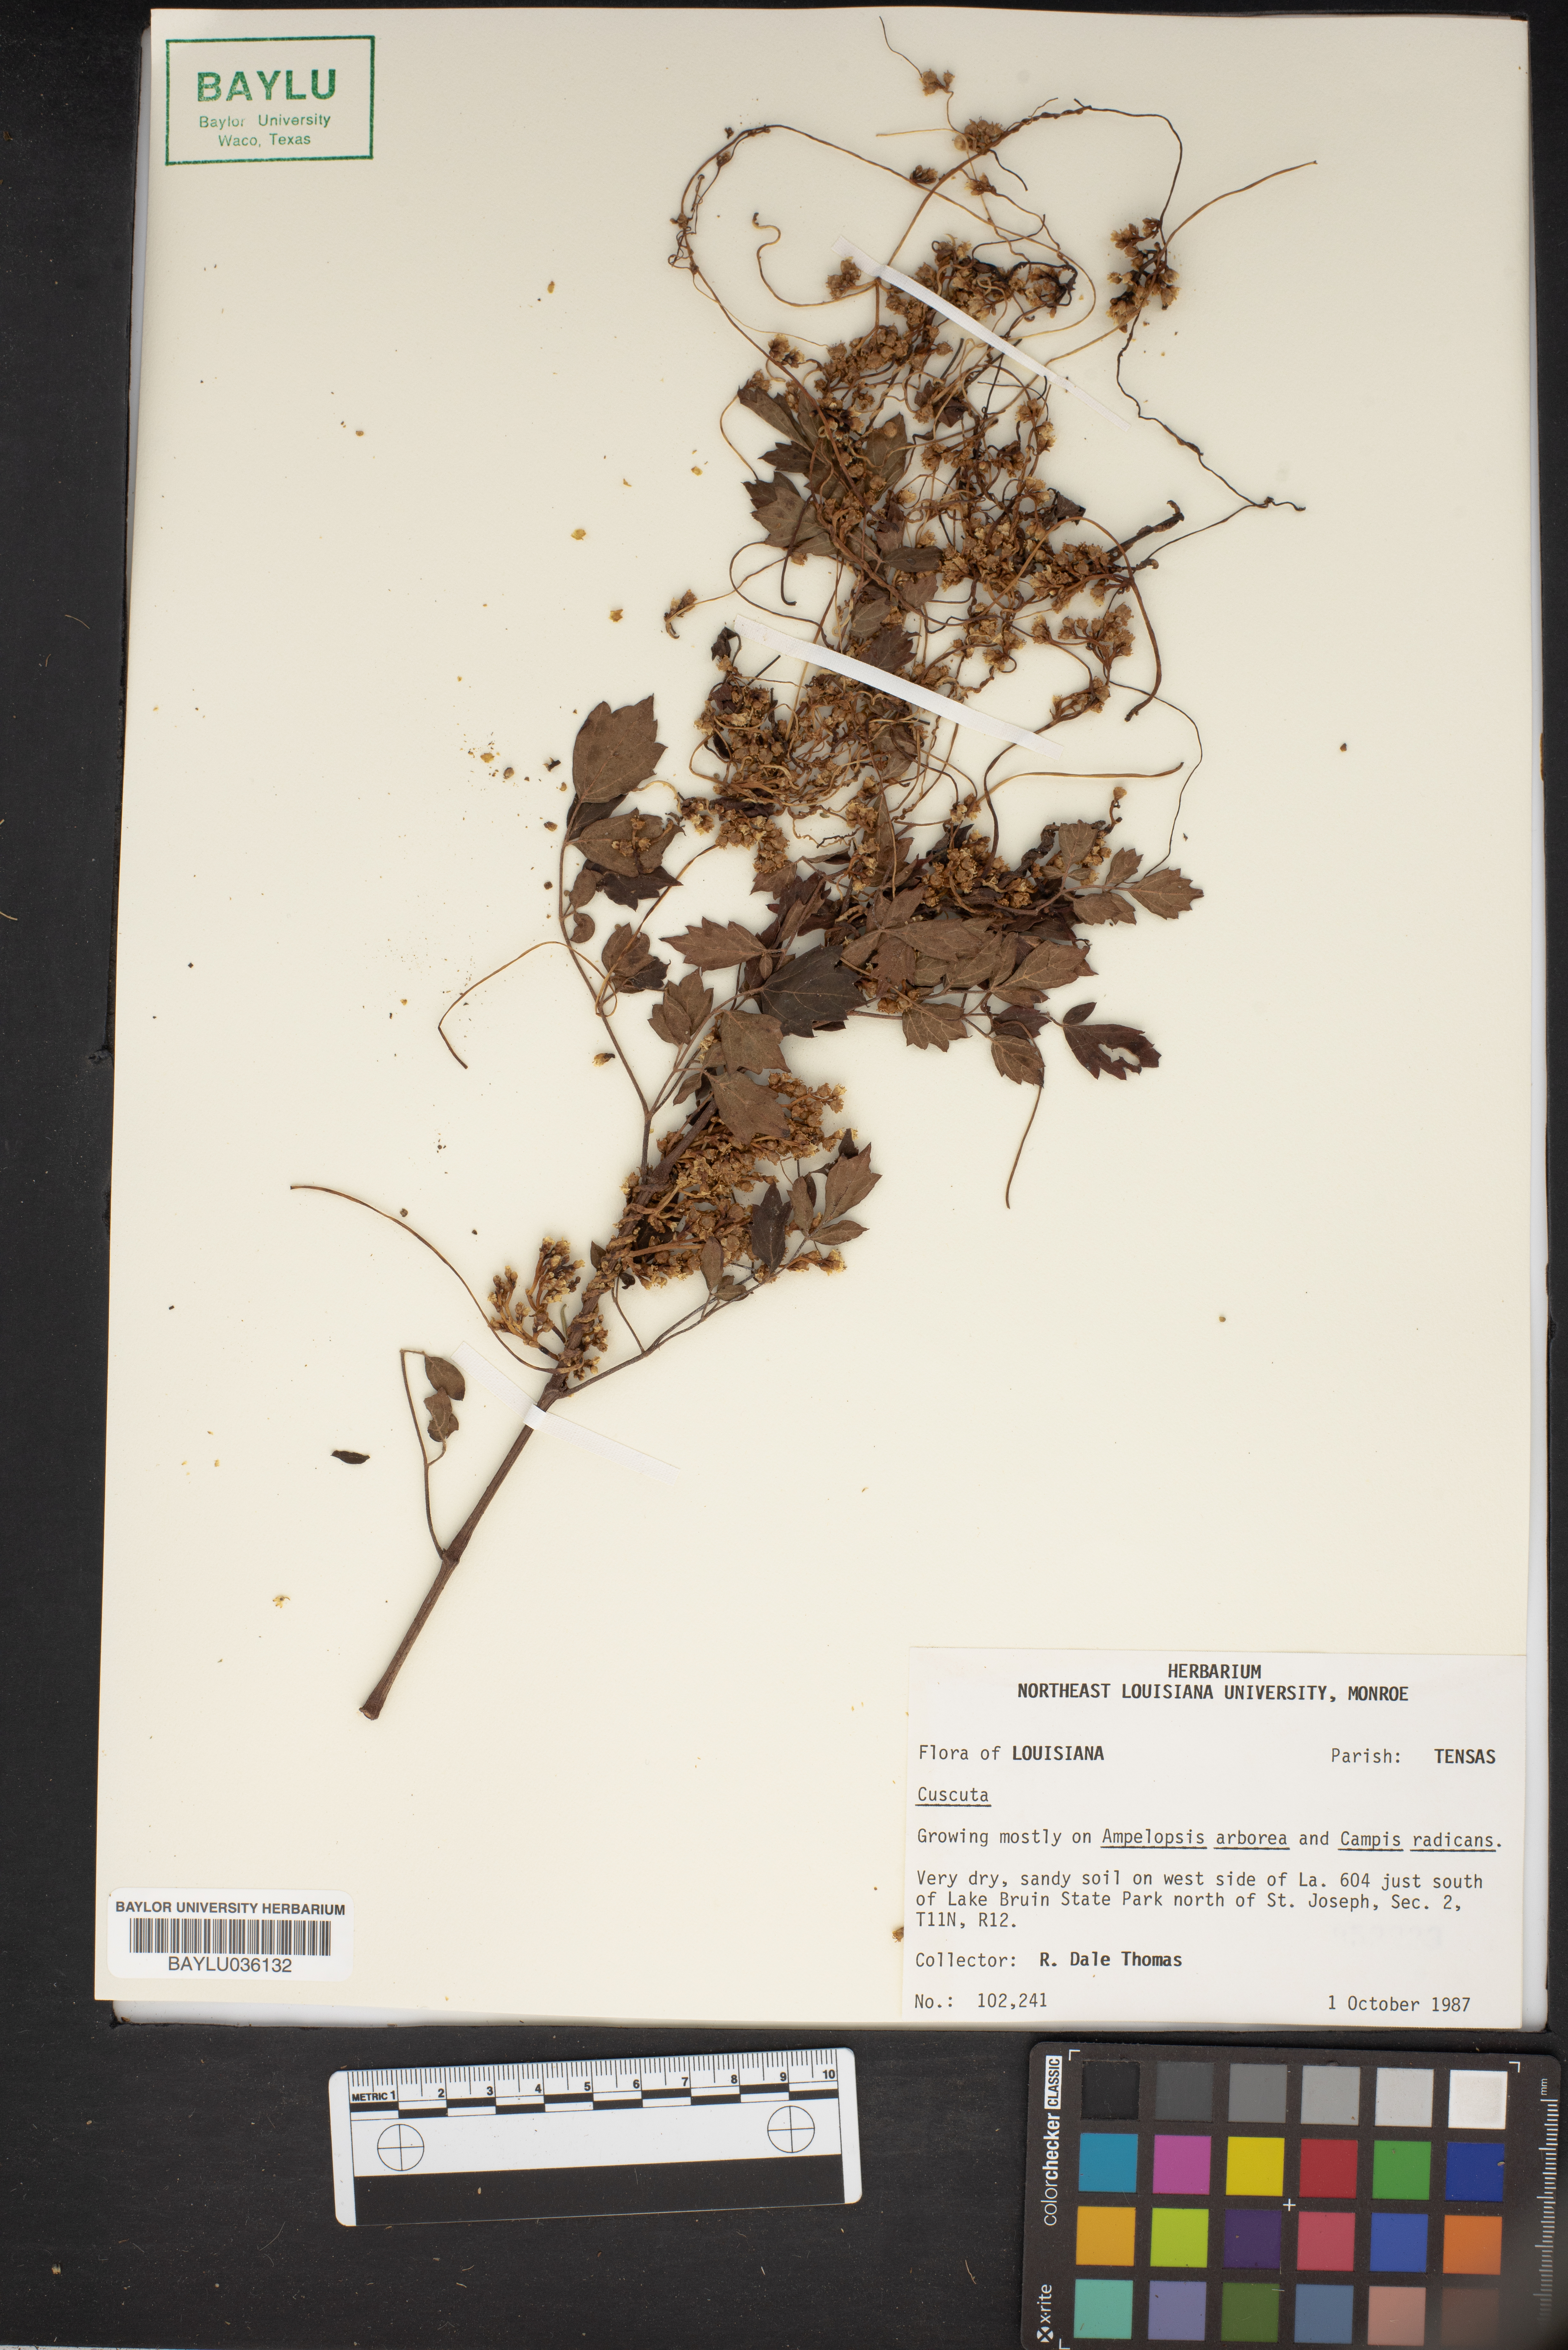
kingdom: Plantae
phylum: Tracheophyta
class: Magnoliopsida
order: Solanales
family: Convolvulaceae
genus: Cuscuta
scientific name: Cuscuta
